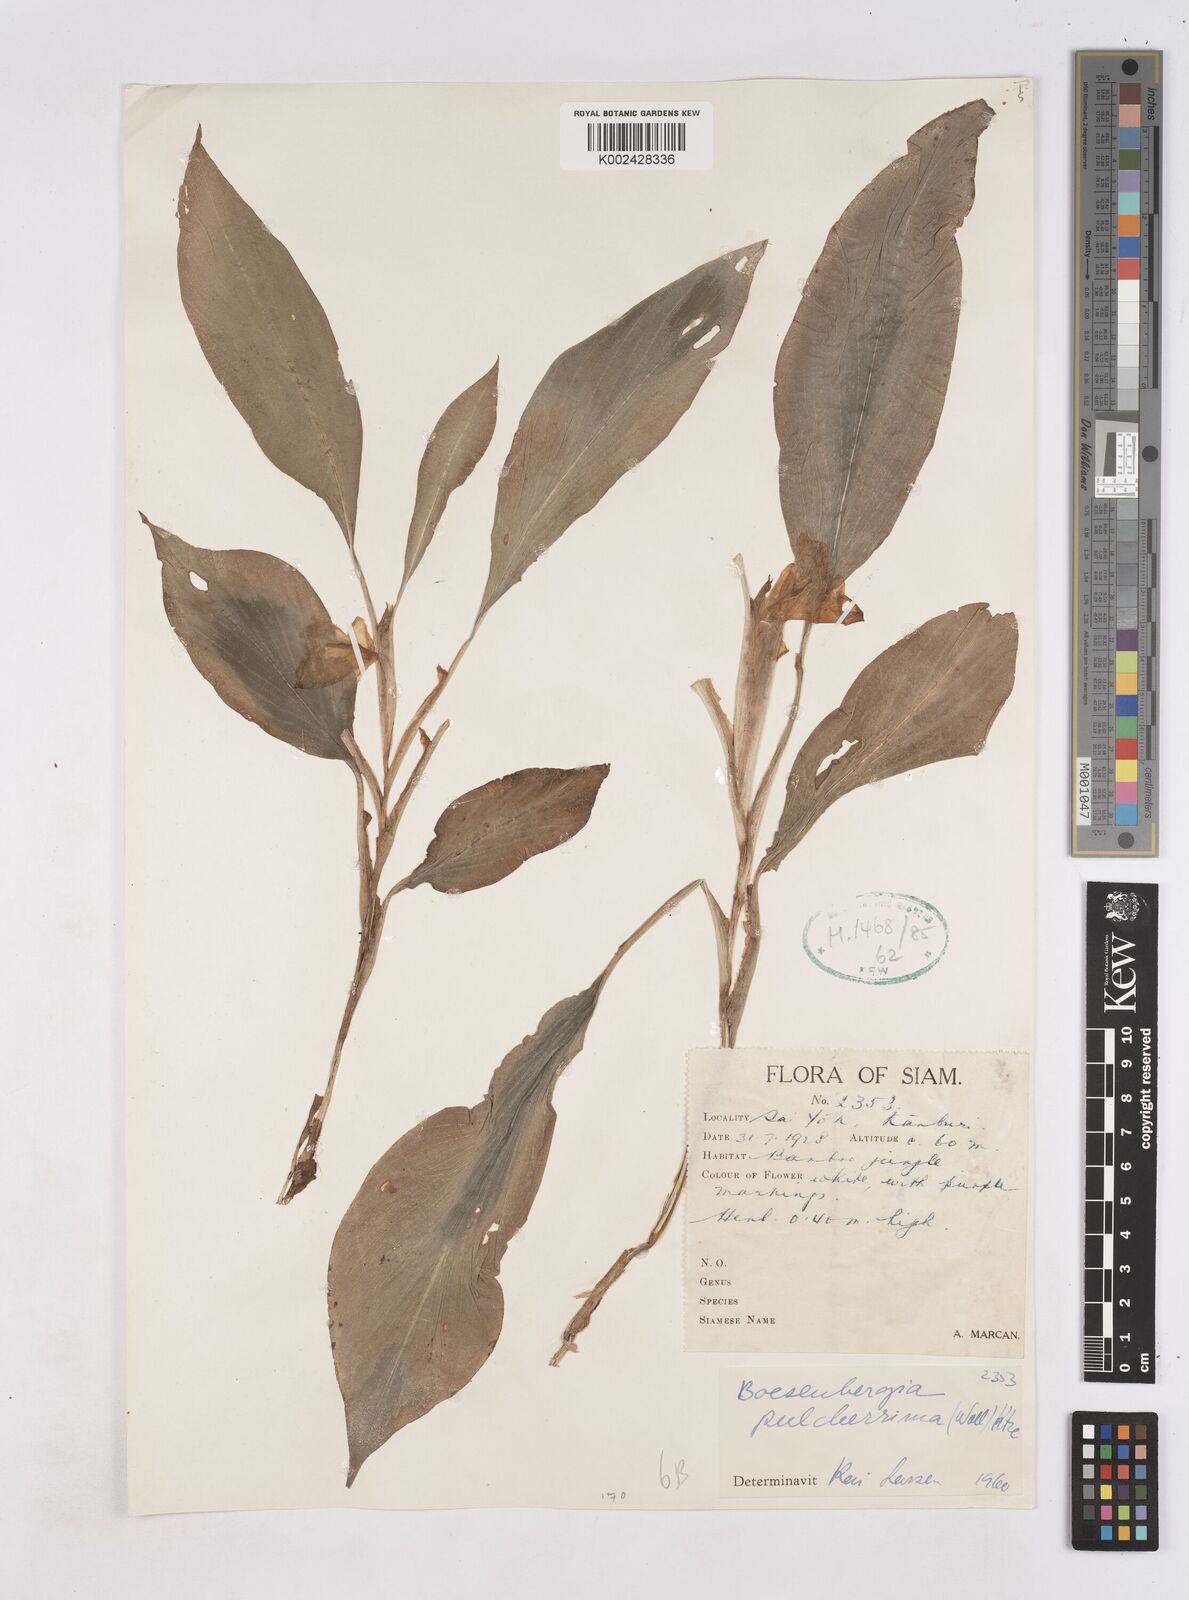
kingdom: Plantae
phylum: Tracheophyta
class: Liliopsida
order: Zingiberales
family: Zingiberaceae
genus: Boesenbergia
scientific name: Boesenbergia pulcherrima
